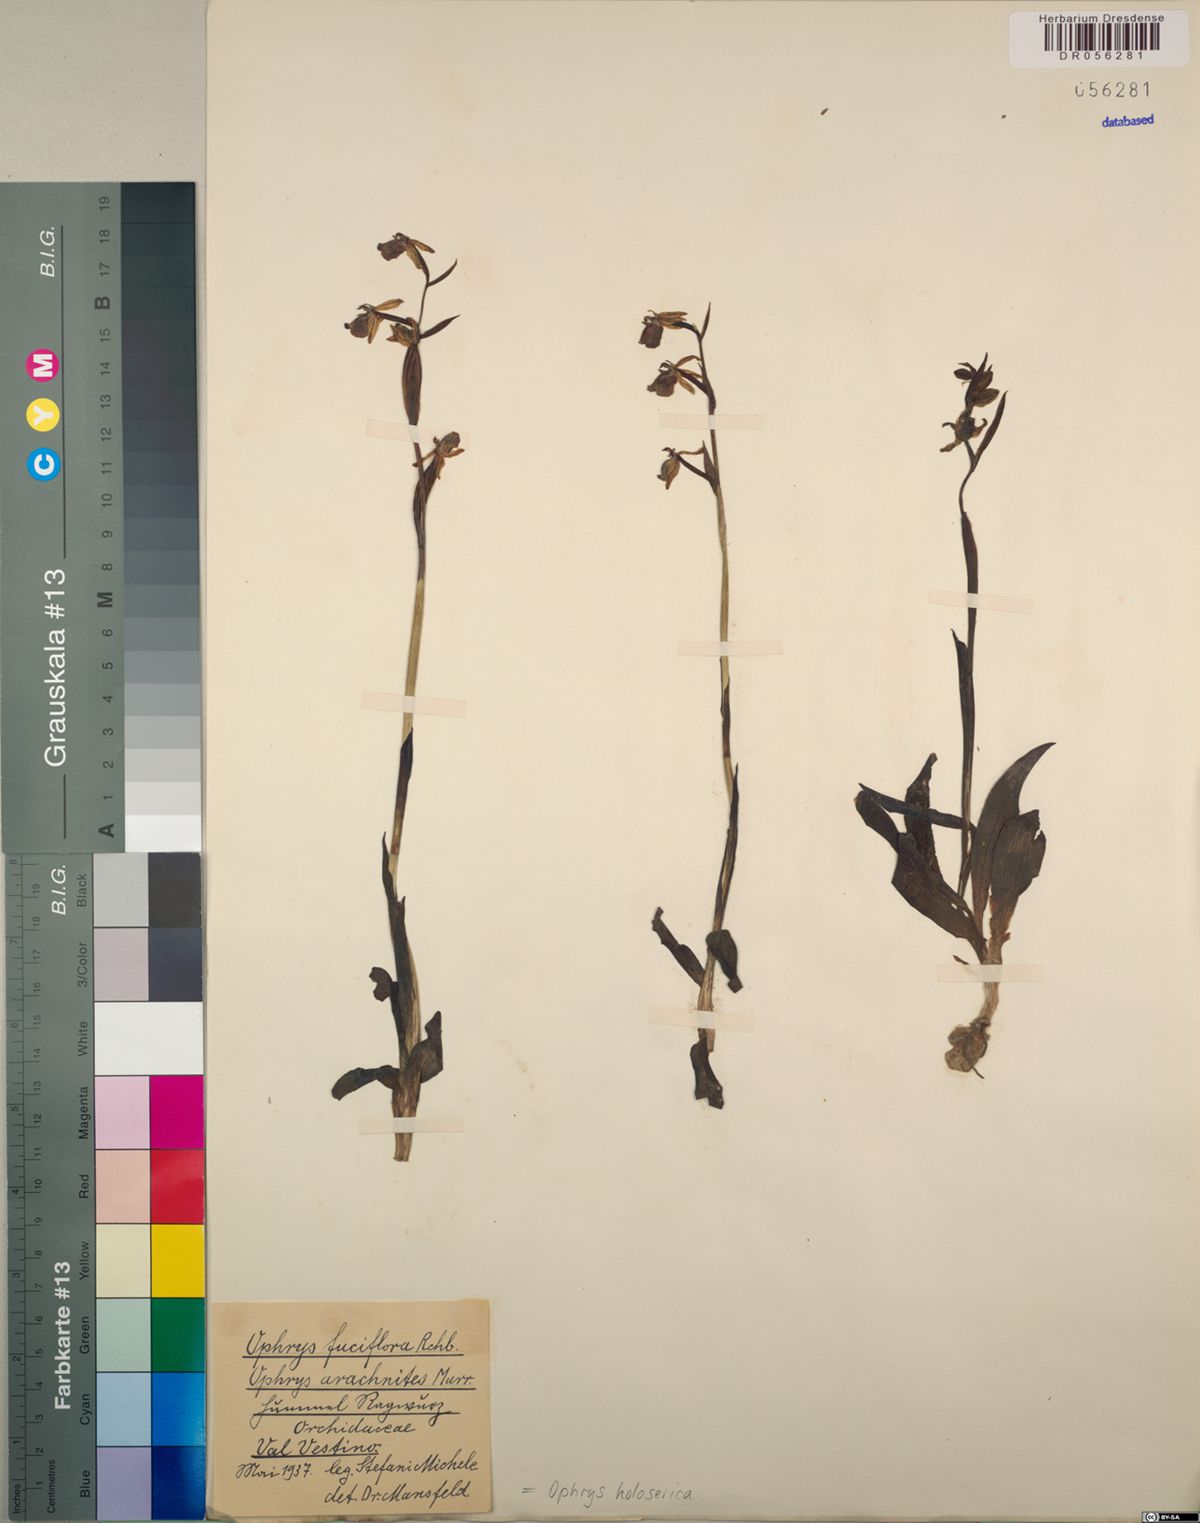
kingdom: Plantae
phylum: Tracheophyta
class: Liliopsida
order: Asparagales
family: Orchidaceae
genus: Ophrys
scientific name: Ophrys holosericea
